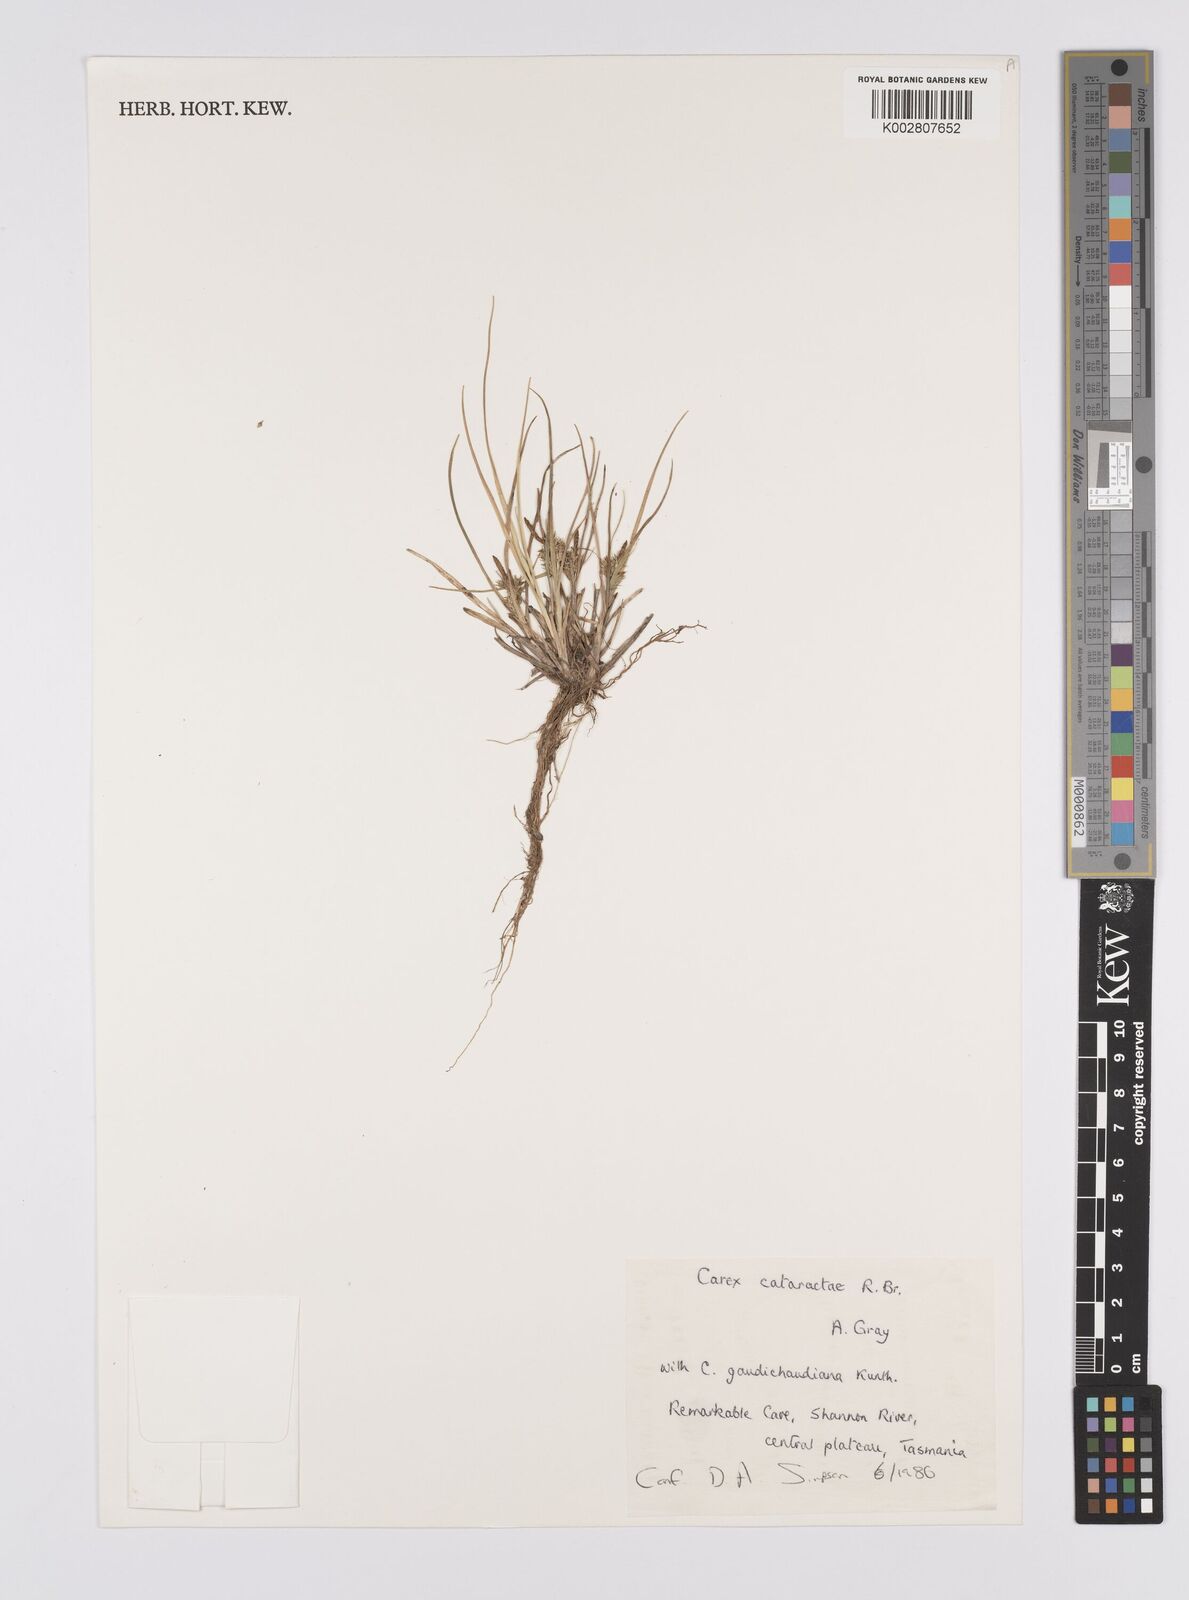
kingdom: Plantae
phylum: Tracheophyta
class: Liliopsida
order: Poales
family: Cyperaceae
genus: Carex
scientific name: Carex cataractae
